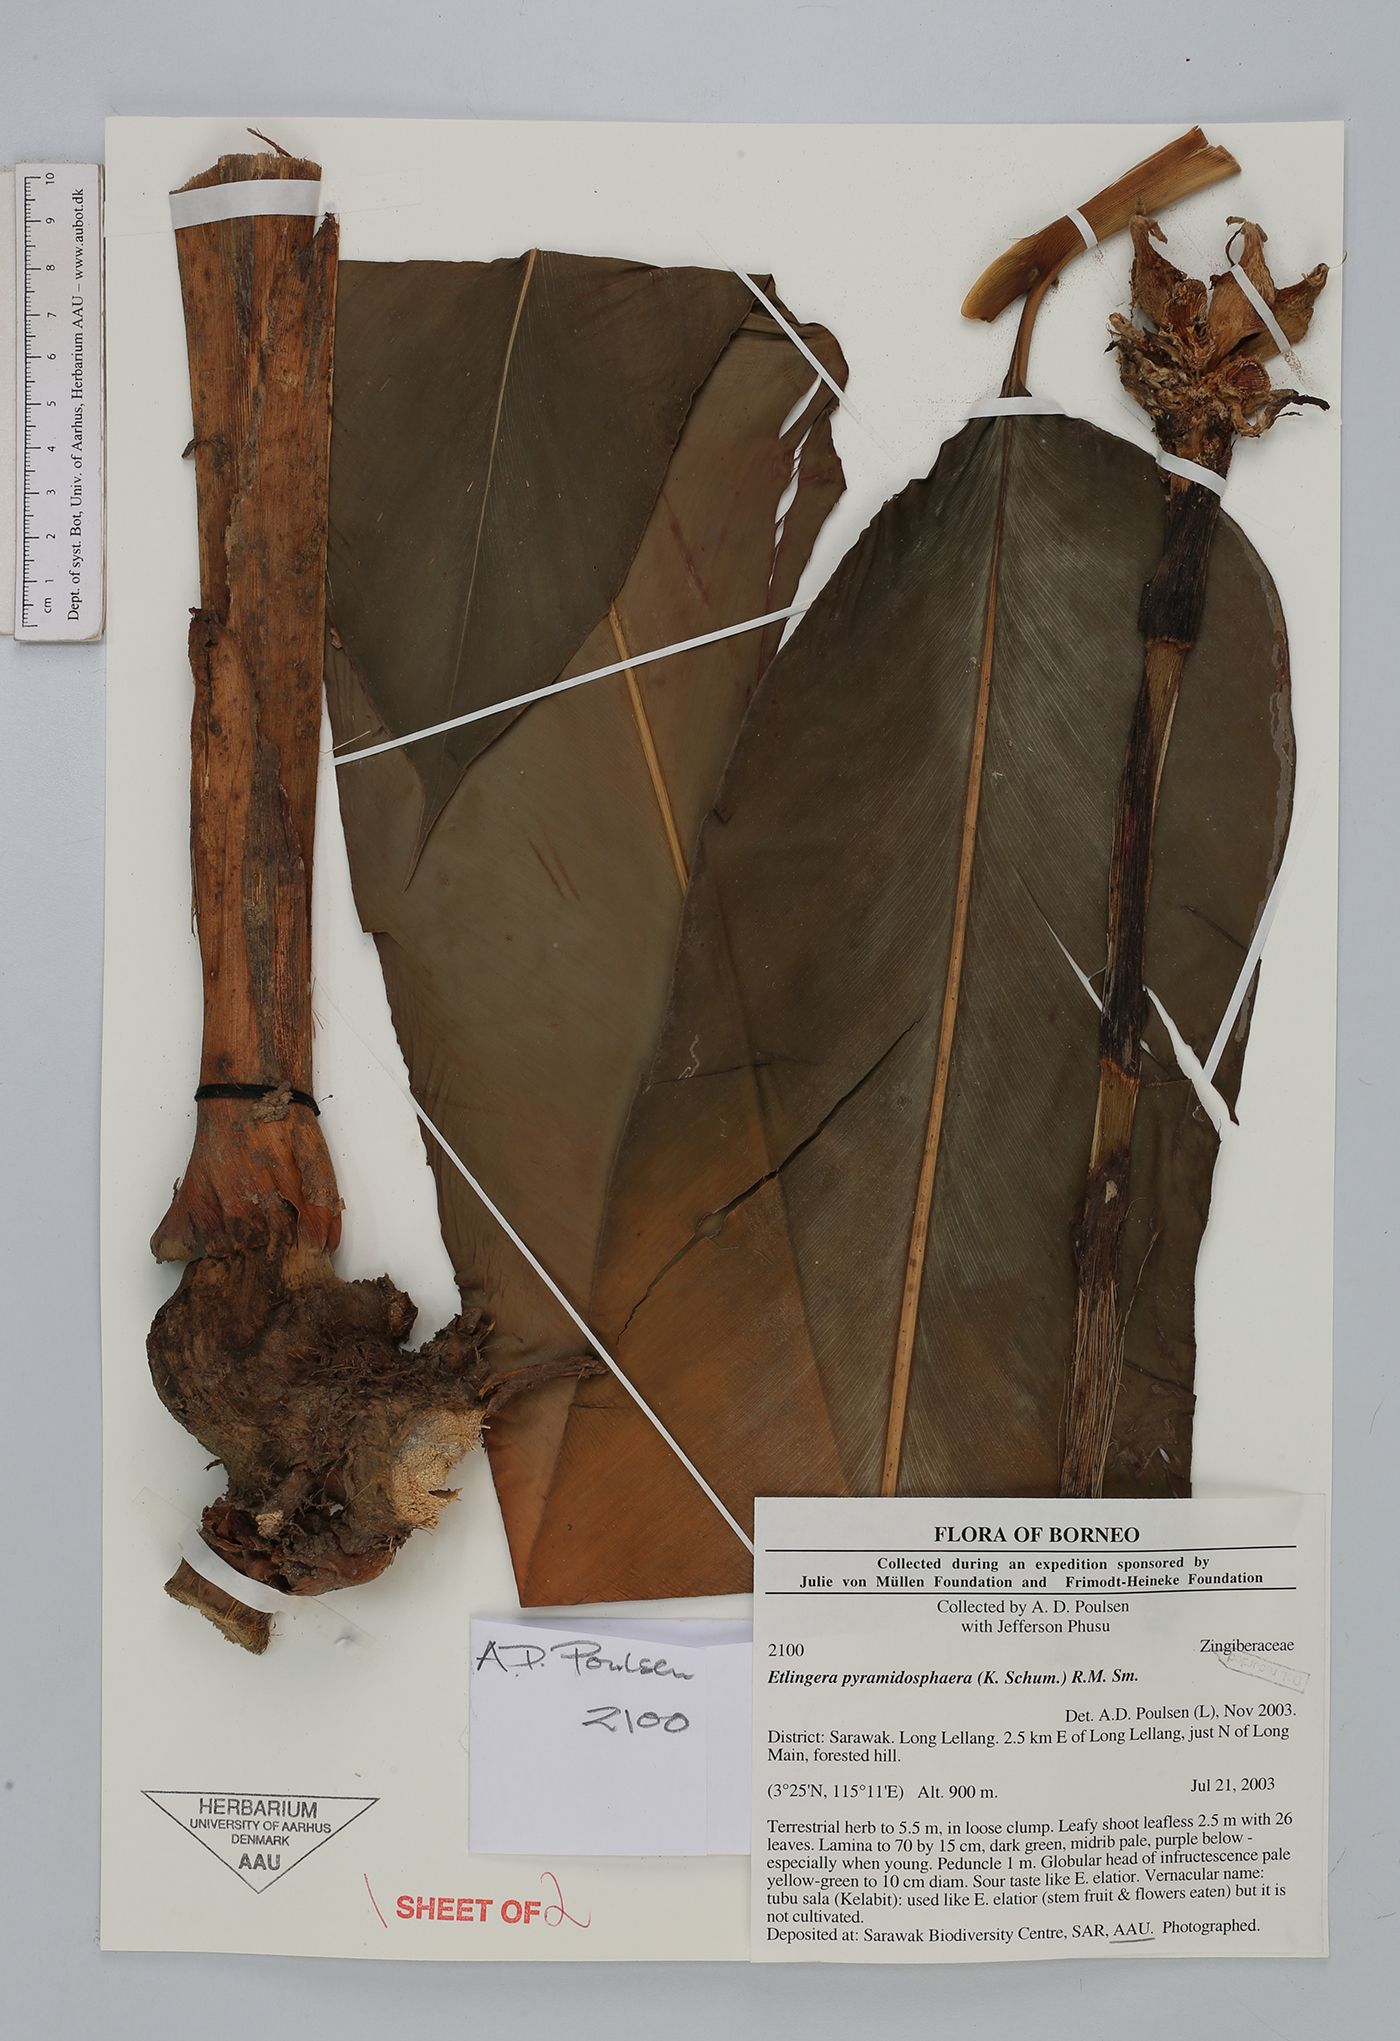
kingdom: Plantae
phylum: Tracheophyta
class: Liliopsida
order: Zingiberales
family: Zingiberaceae
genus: Etlingera
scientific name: Etlingera pyramidosphaera
